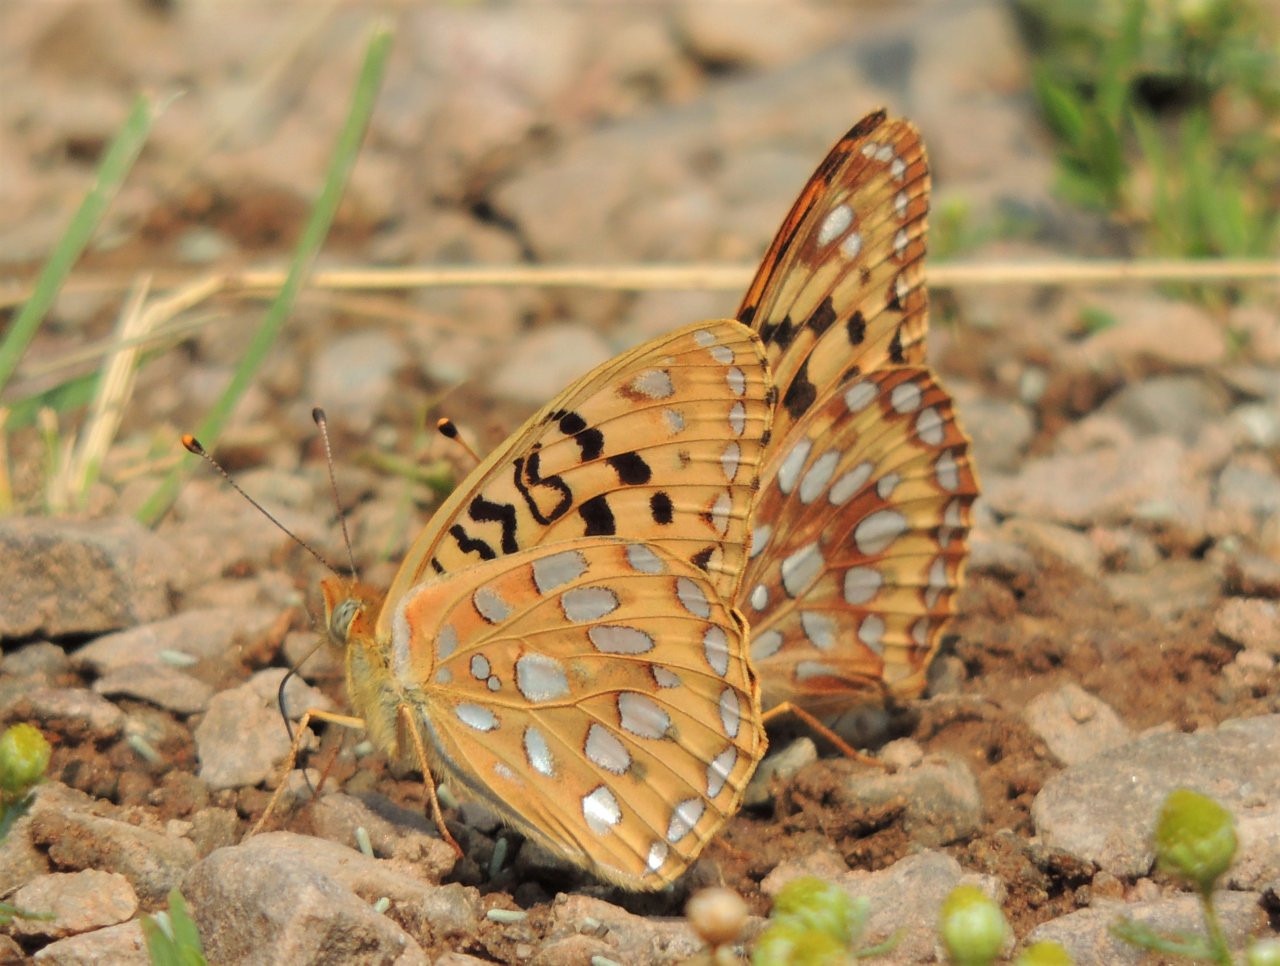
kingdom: Animalia
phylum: Arthropoda
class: Insecta
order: Lepidoptera
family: Nymphalidae
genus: Speyeria
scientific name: Speyeria zerene
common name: Zerene Fritillary
